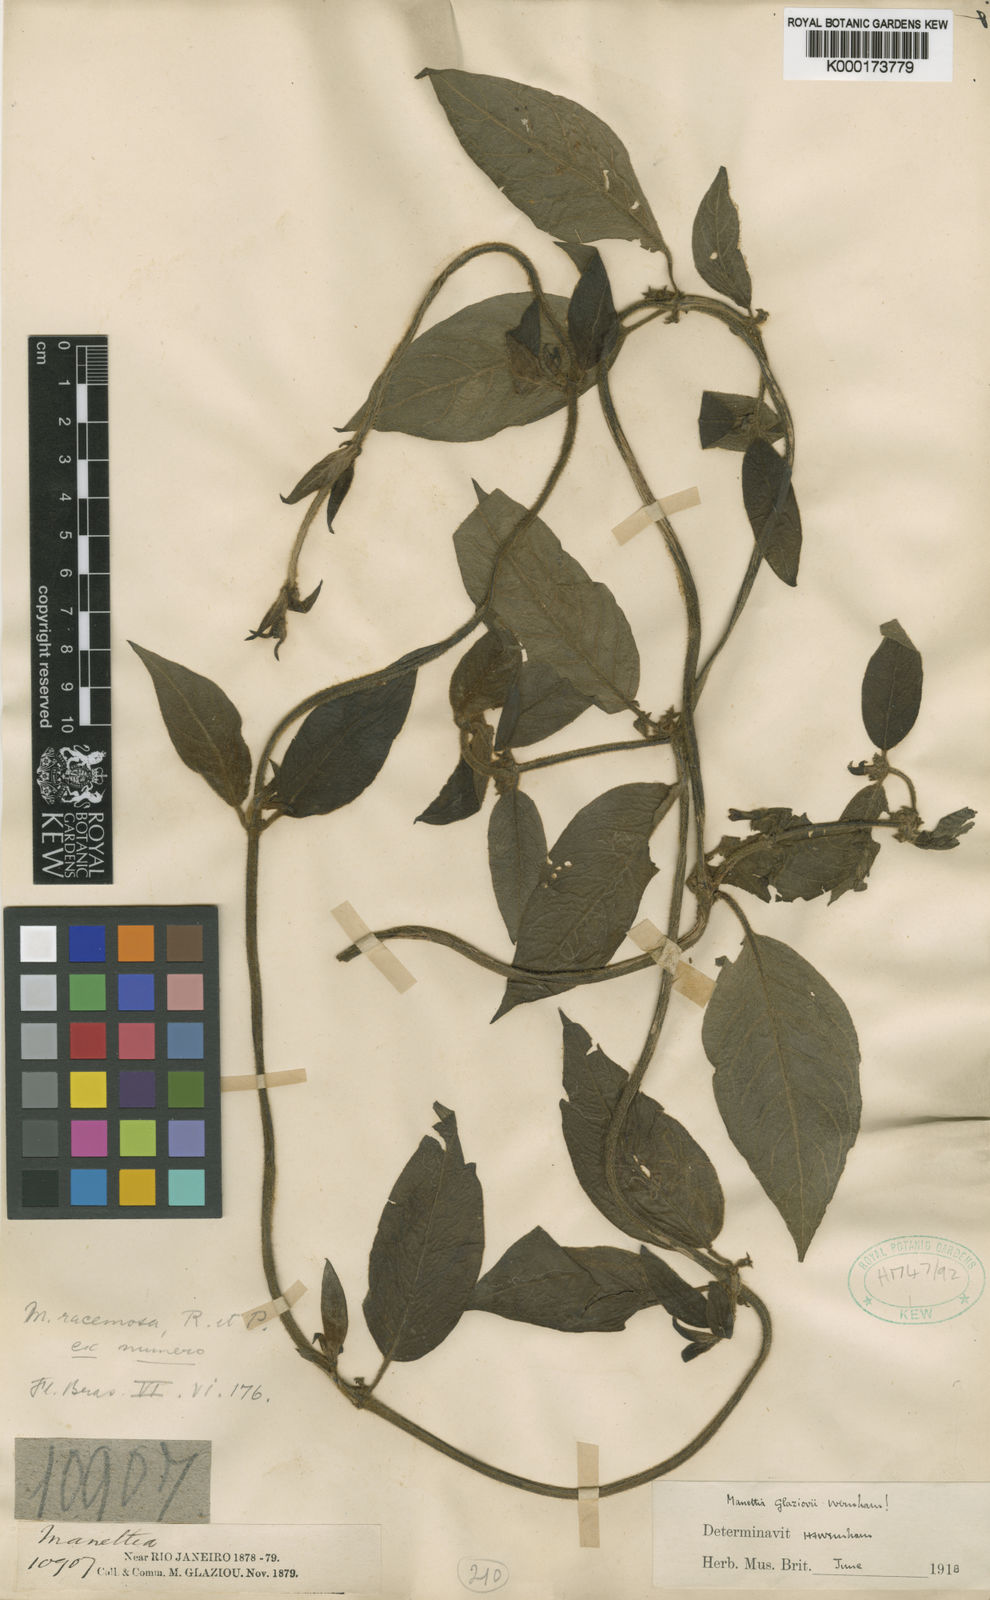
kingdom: Plantae
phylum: Tracheophyta
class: Magnoliopsida
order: Gentianales
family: Rubiaceae
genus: Manettia
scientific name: Manettia glaziovii
